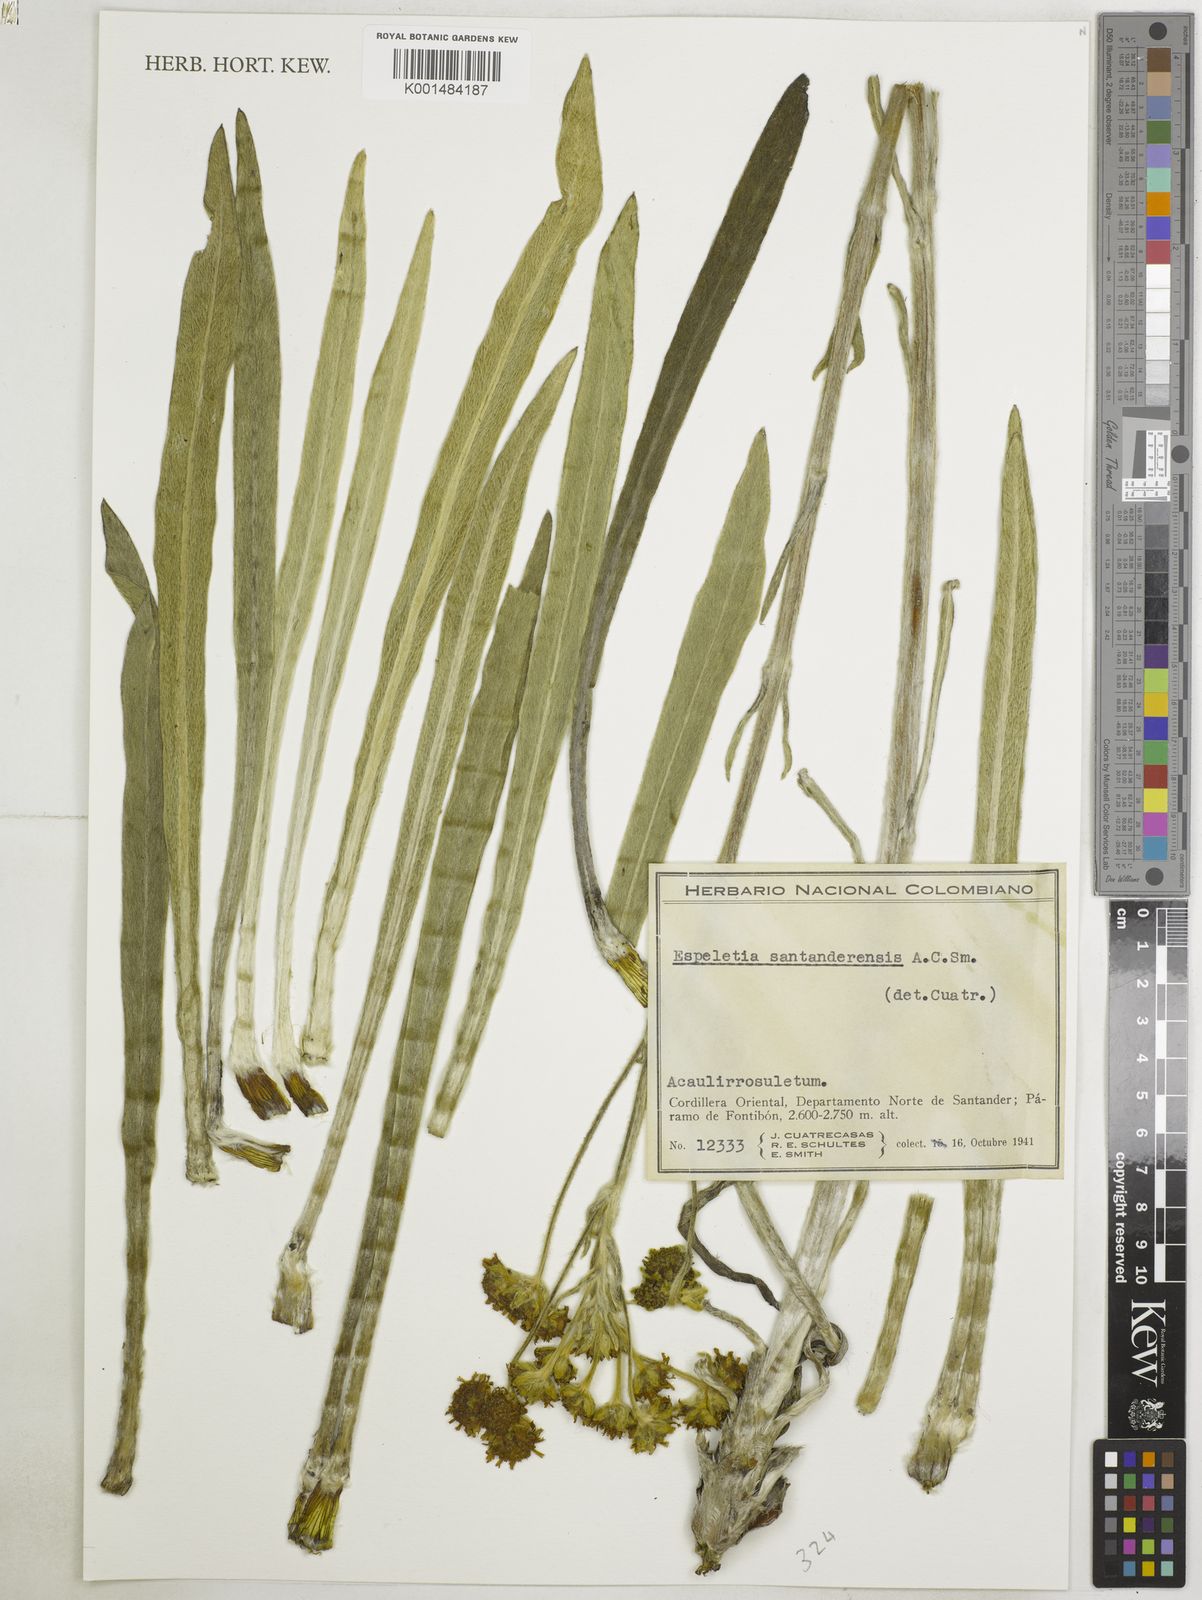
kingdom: Plantae
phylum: Tracheophyta
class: Magnoliopsida
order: Asterales
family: Asteraceae
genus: Espeletia
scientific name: Espeletia santanderensis
